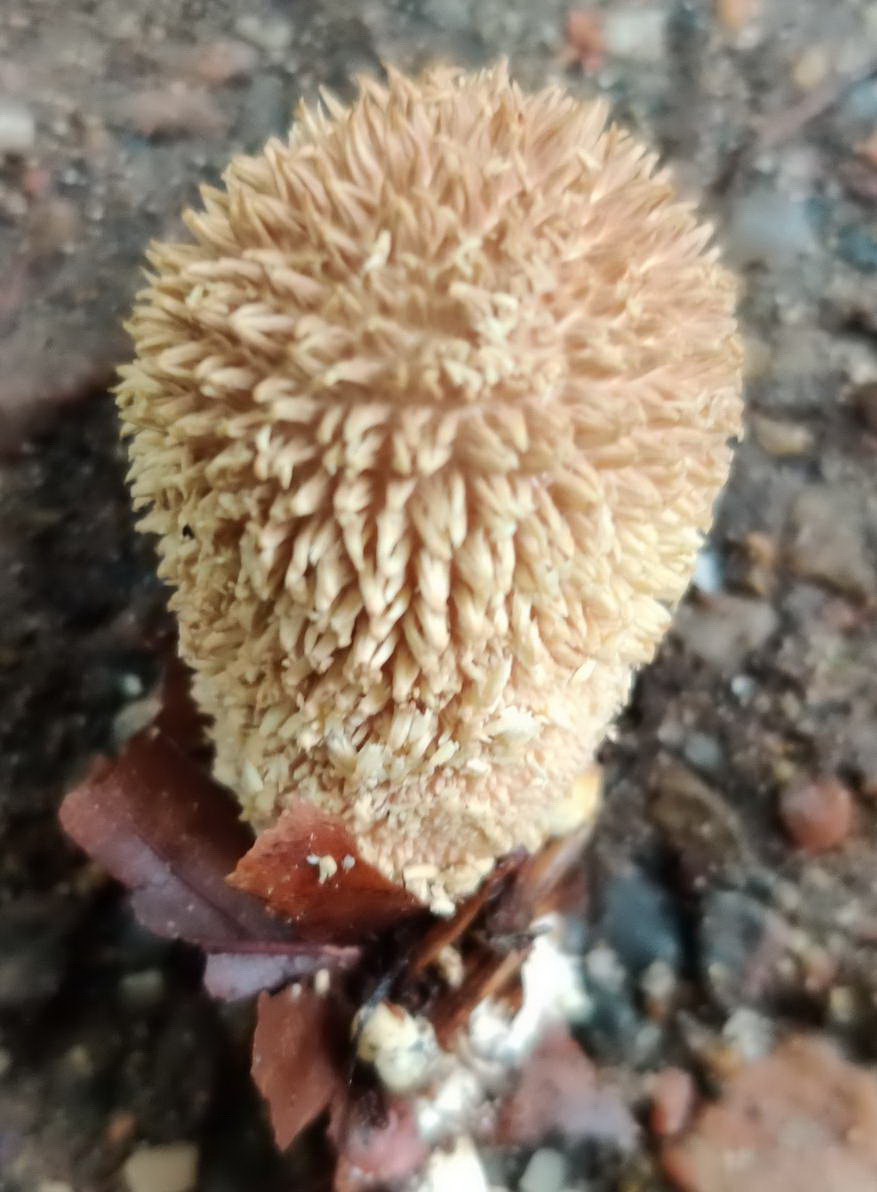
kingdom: Fungi
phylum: Basidiomycota
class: Agaricomycetes
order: Agaricales
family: Lycoperdaceae
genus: Lycoperdon
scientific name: Lycoperdon echinatum
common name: pindsvine-støvbold
